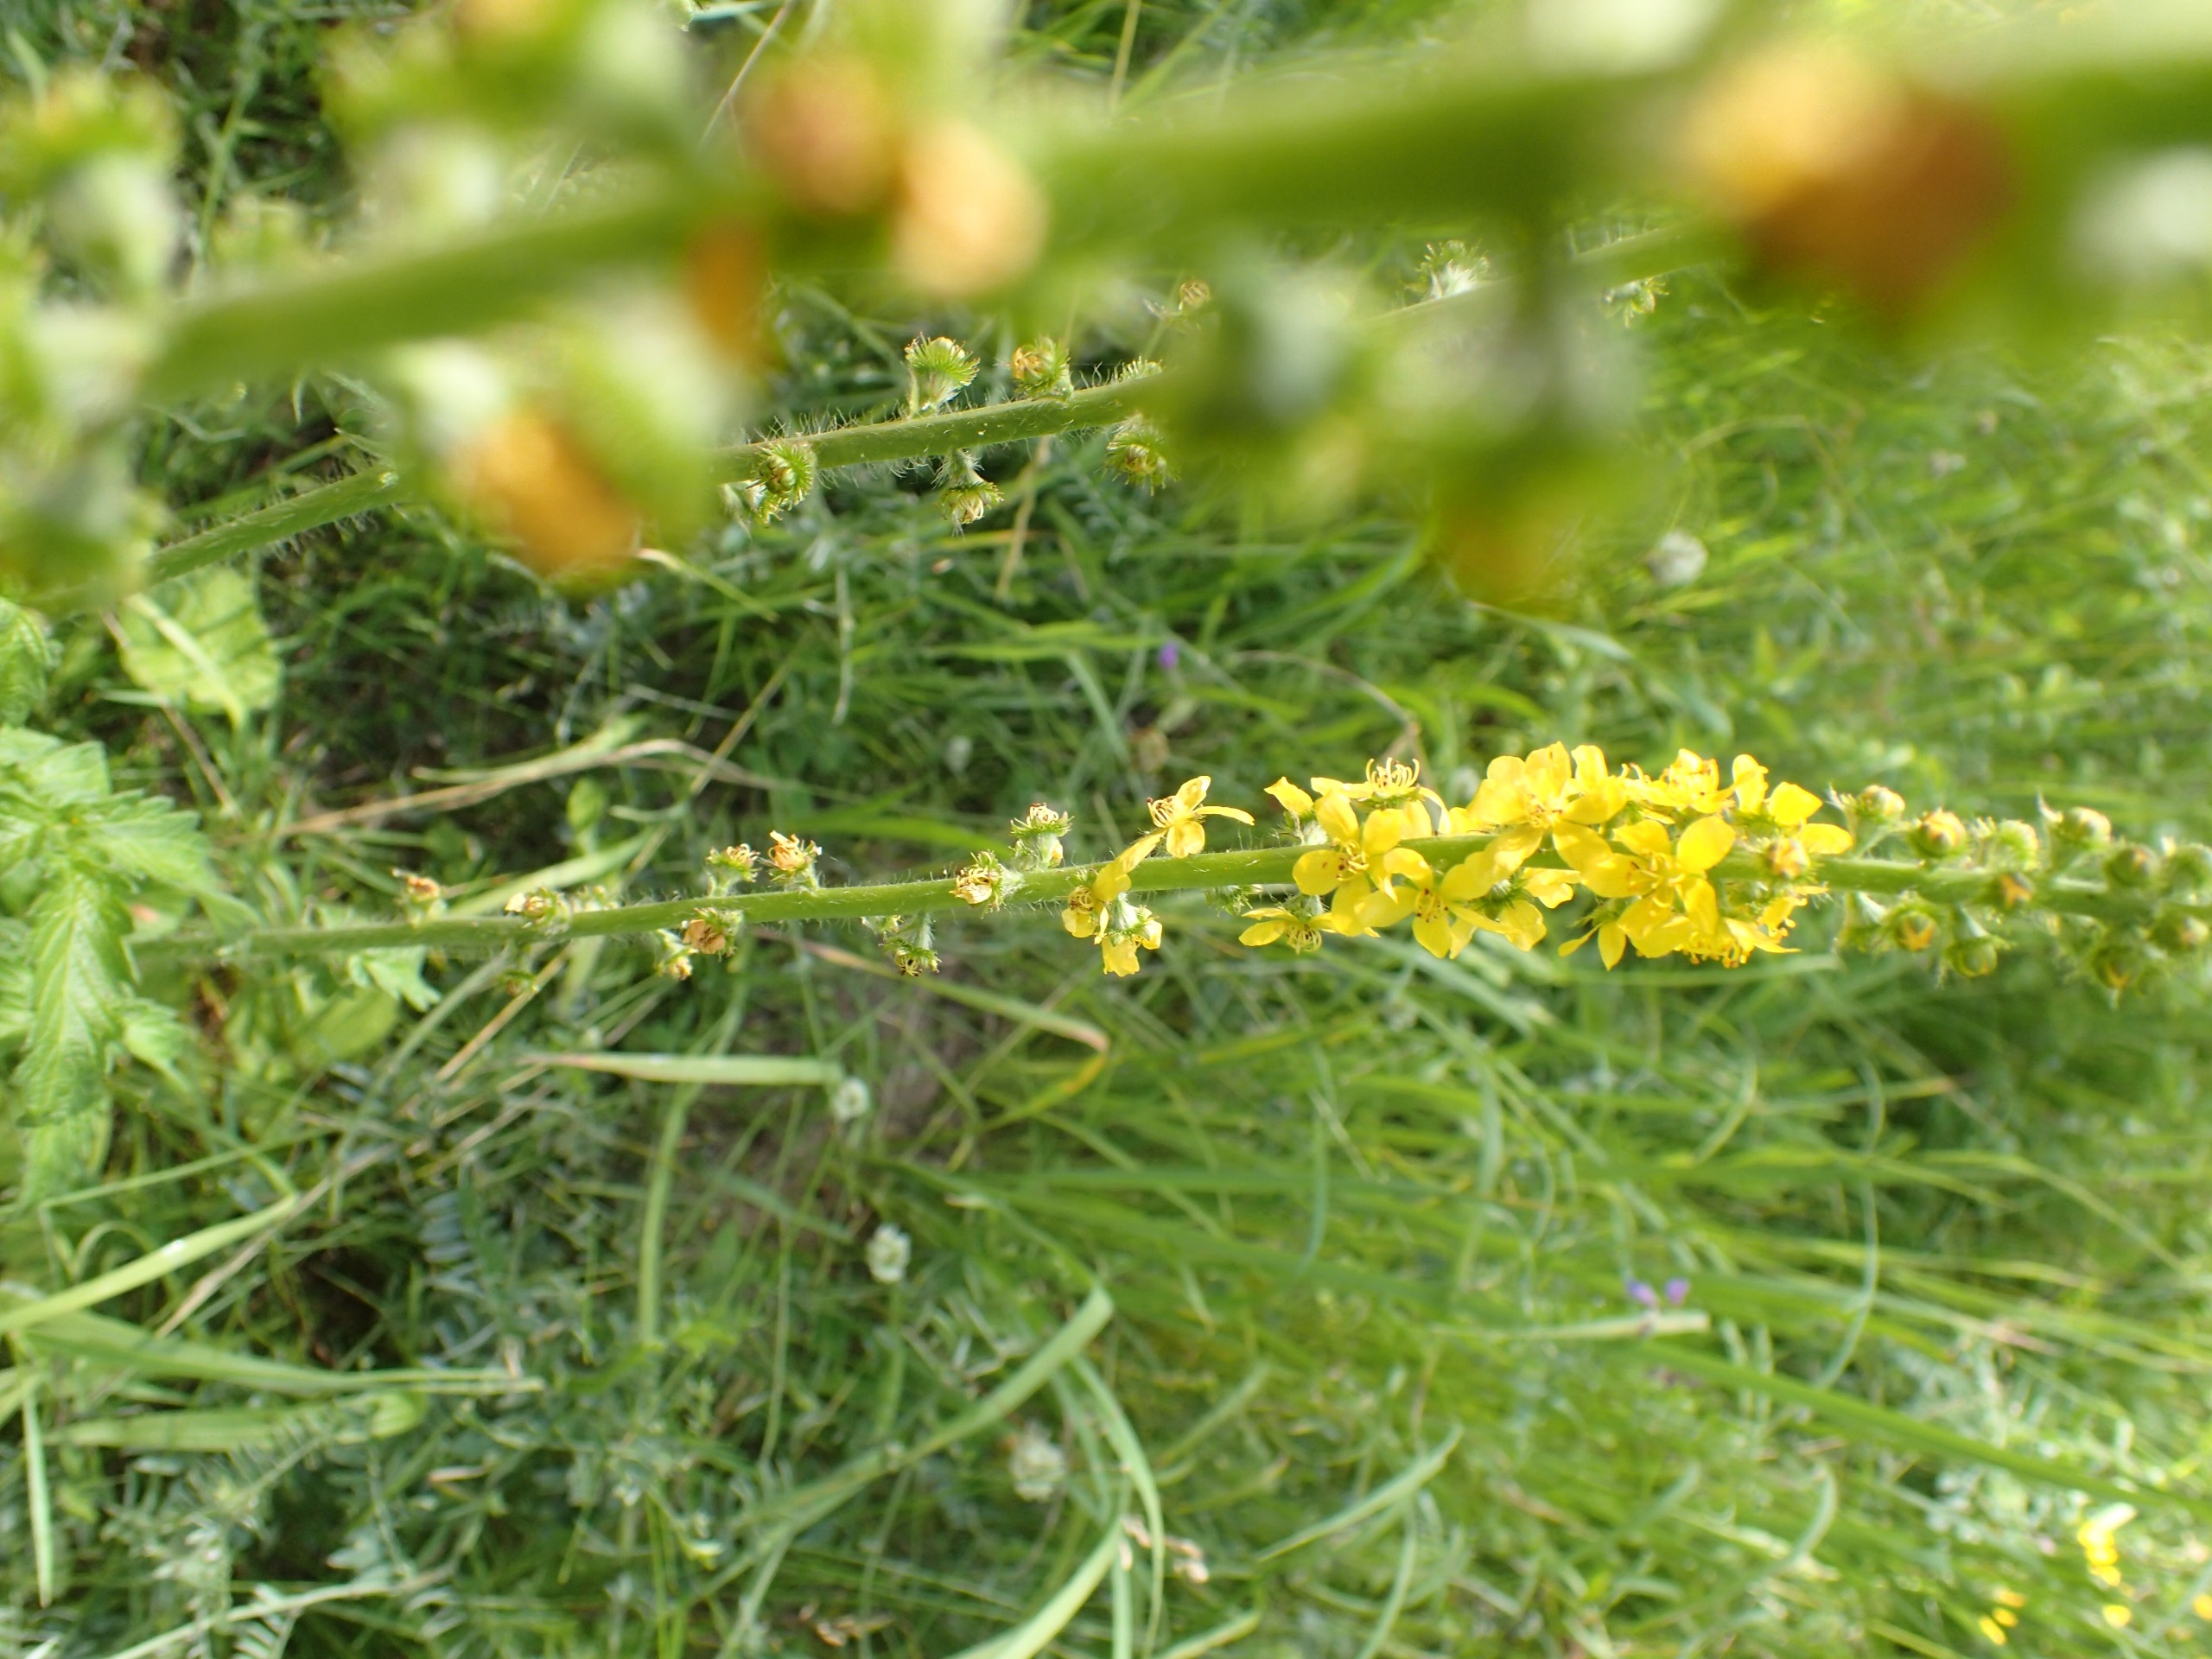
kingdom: Plantae
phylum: Tracheophyta
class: Magnoliopsida
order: Rosales
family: Rosaceae
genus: Agrimonia
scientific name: Agrimonia procera
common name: Vellugtende agermåne
